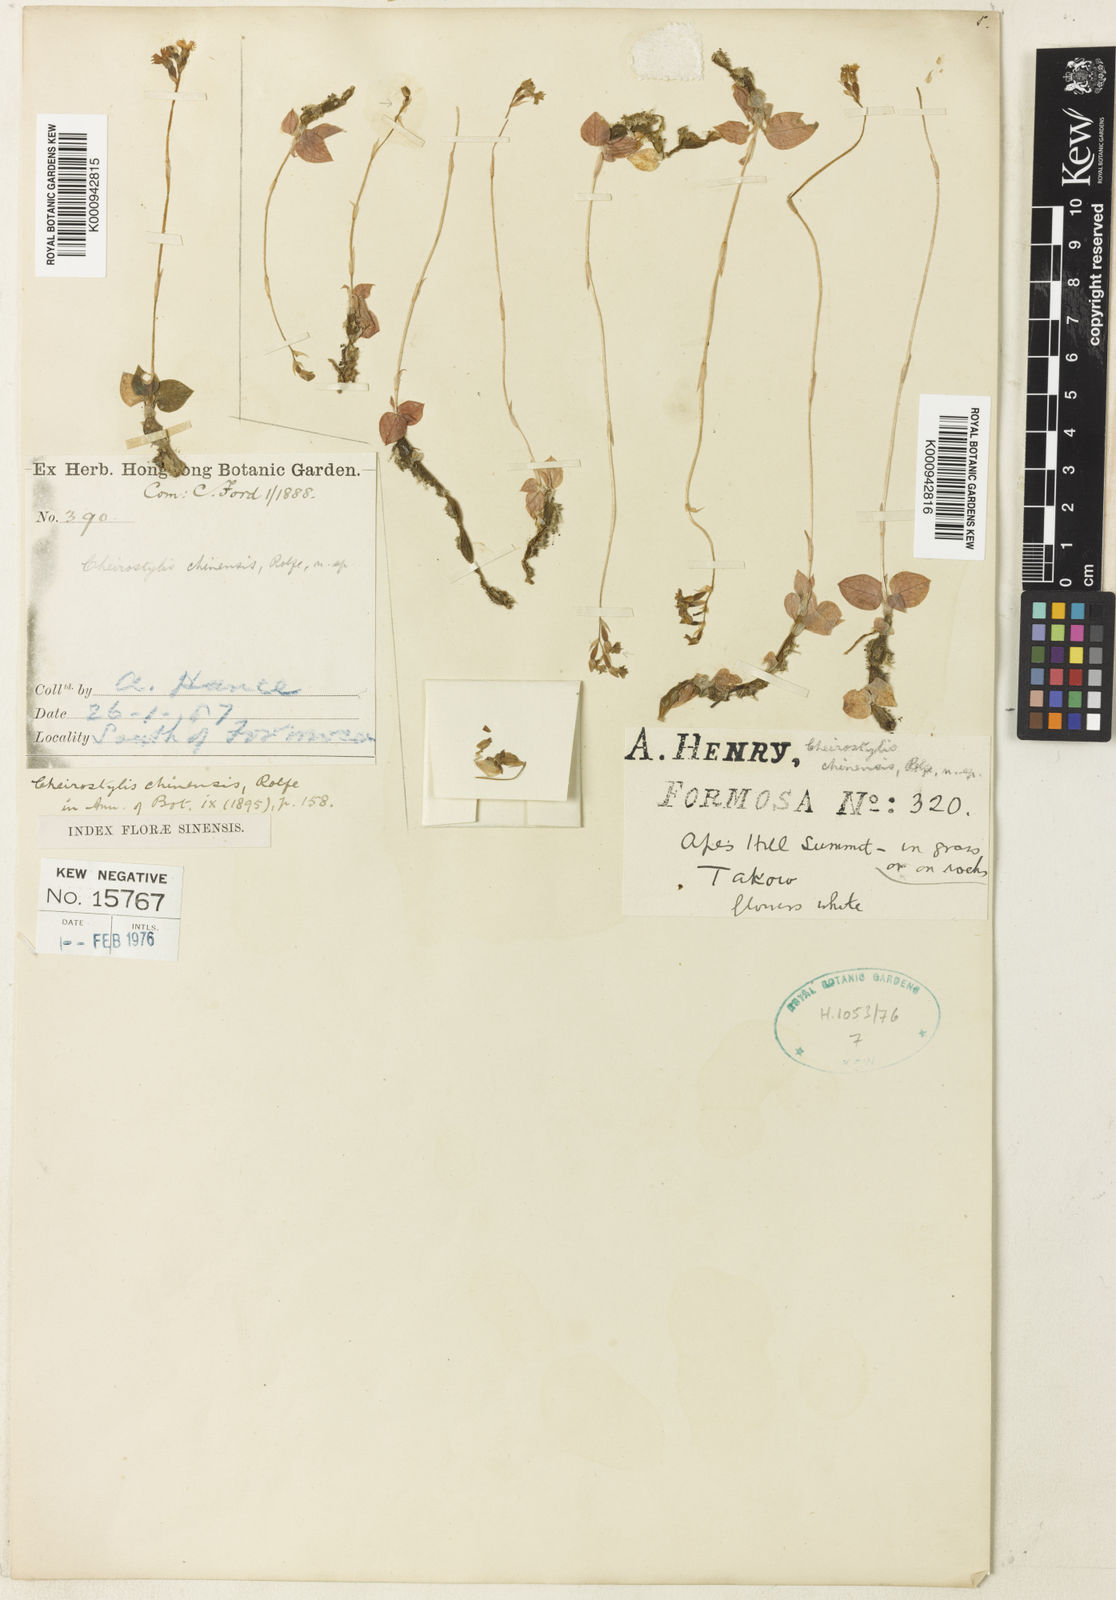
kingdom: Plantae
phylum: Tracheophyta
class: Liliopsida
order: Asparagales
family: Orchidaceae
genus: Cheirostylis
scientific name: Cheirostylis chinensis
